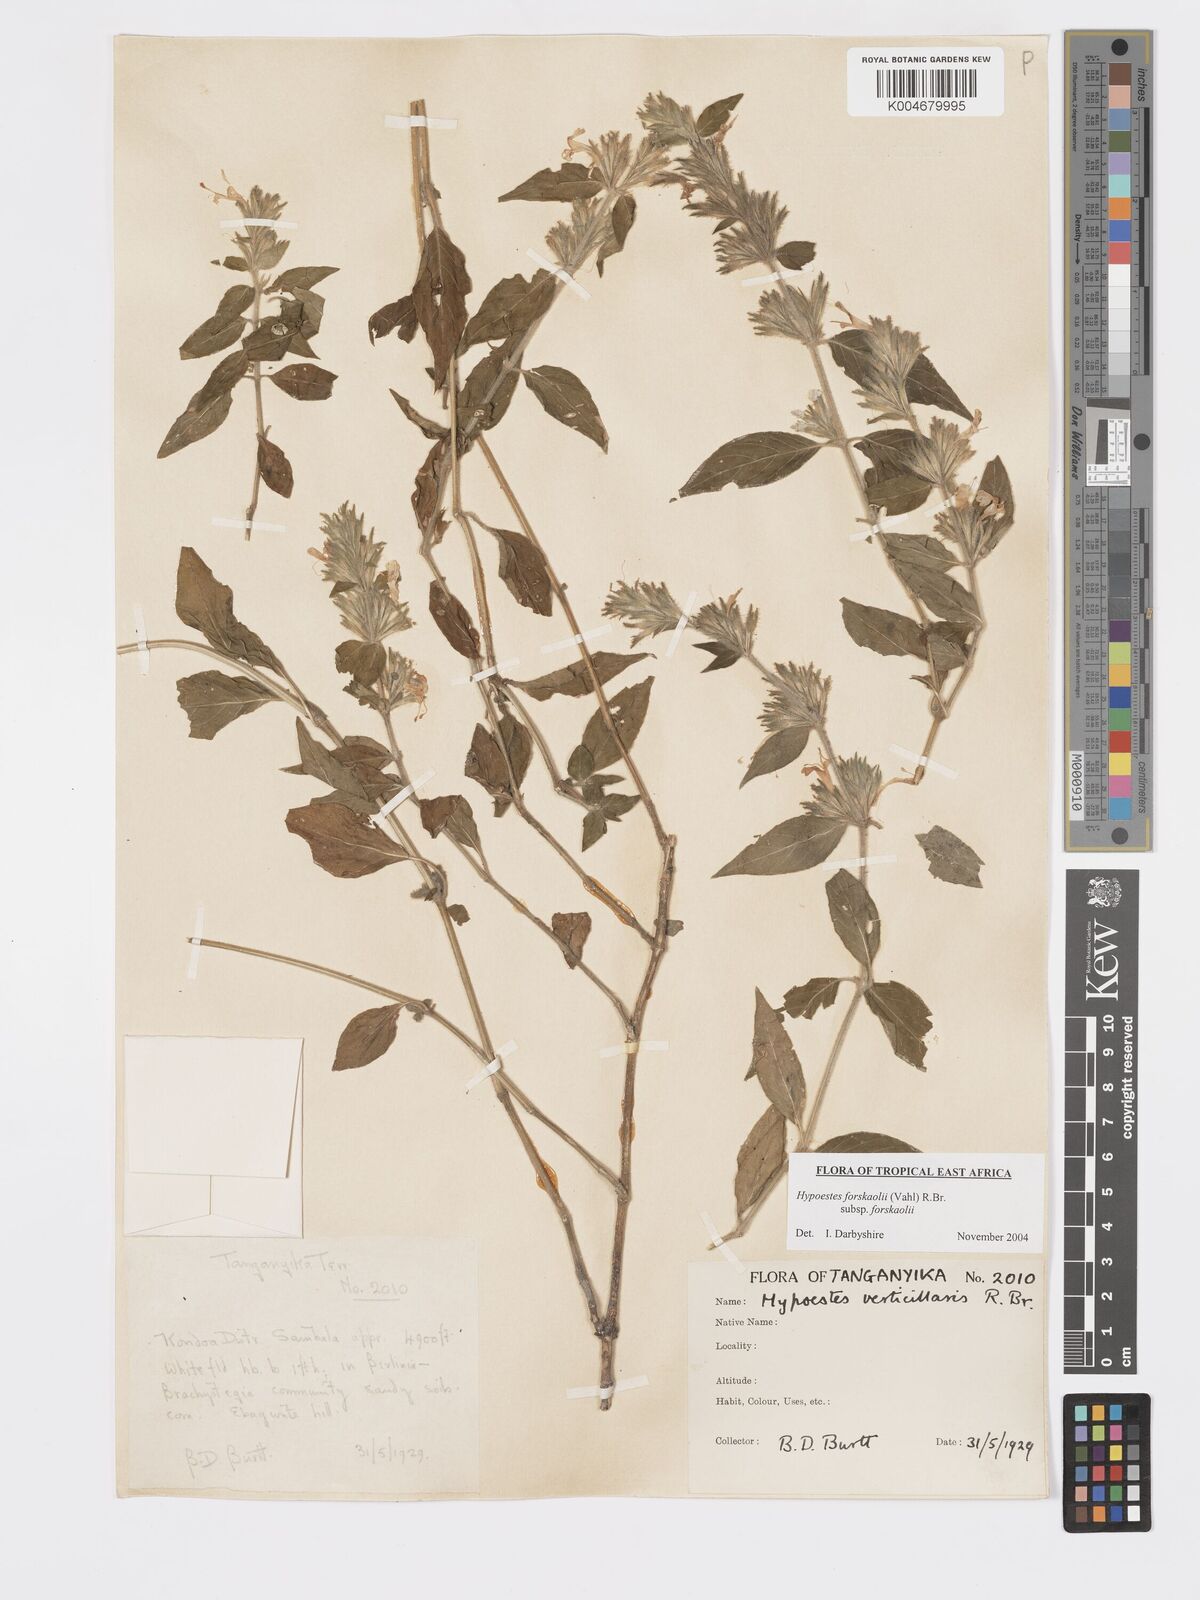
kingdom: Plantae
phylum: Tracheophyta
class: Magnoliopsida
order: Lamiales
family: Acanthaceae
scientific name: Acanthaceae
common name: Acanthaceae
